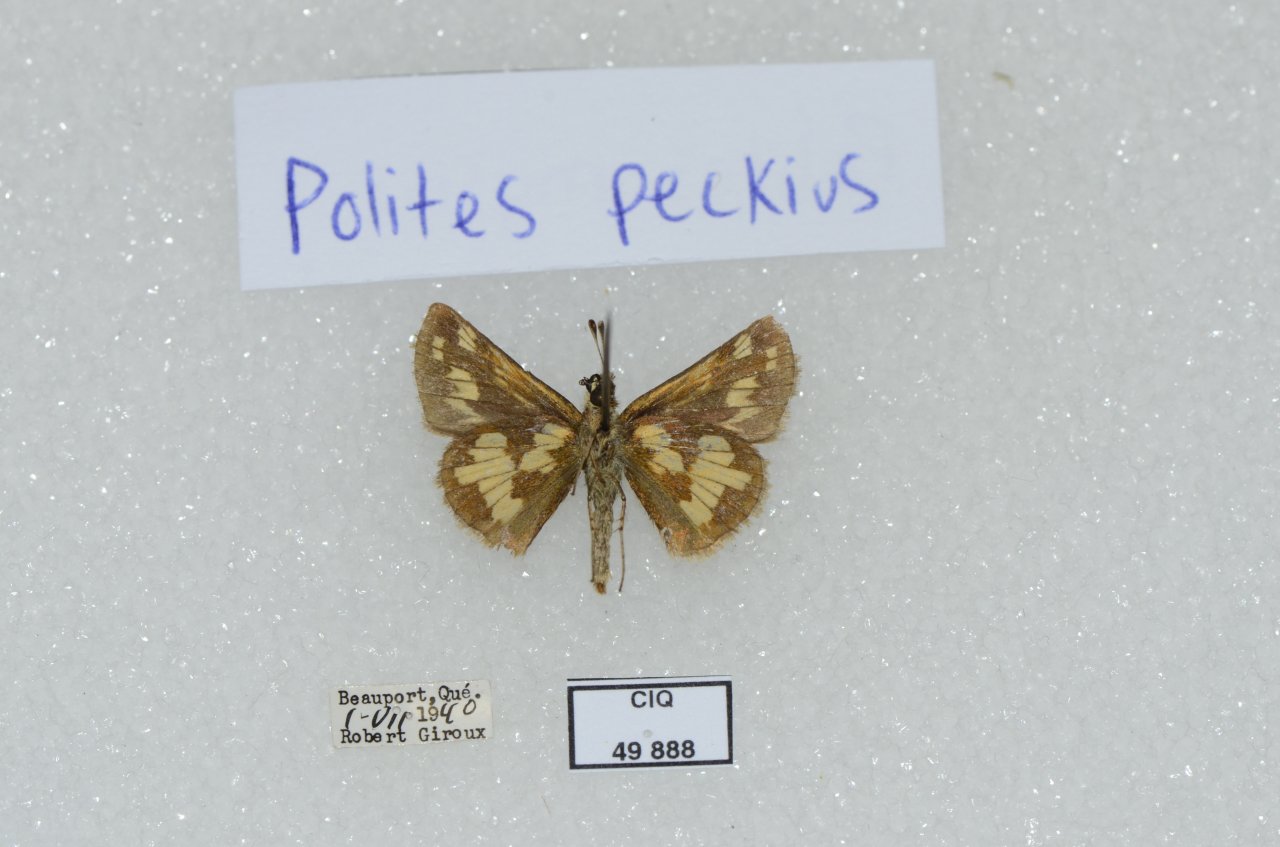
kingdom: Animalia
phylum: Arthropoda
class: Insecta
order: Lepidoptera
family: Hesperiidae
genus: Polites
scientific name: Polites coras
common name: Peck's Skipper
